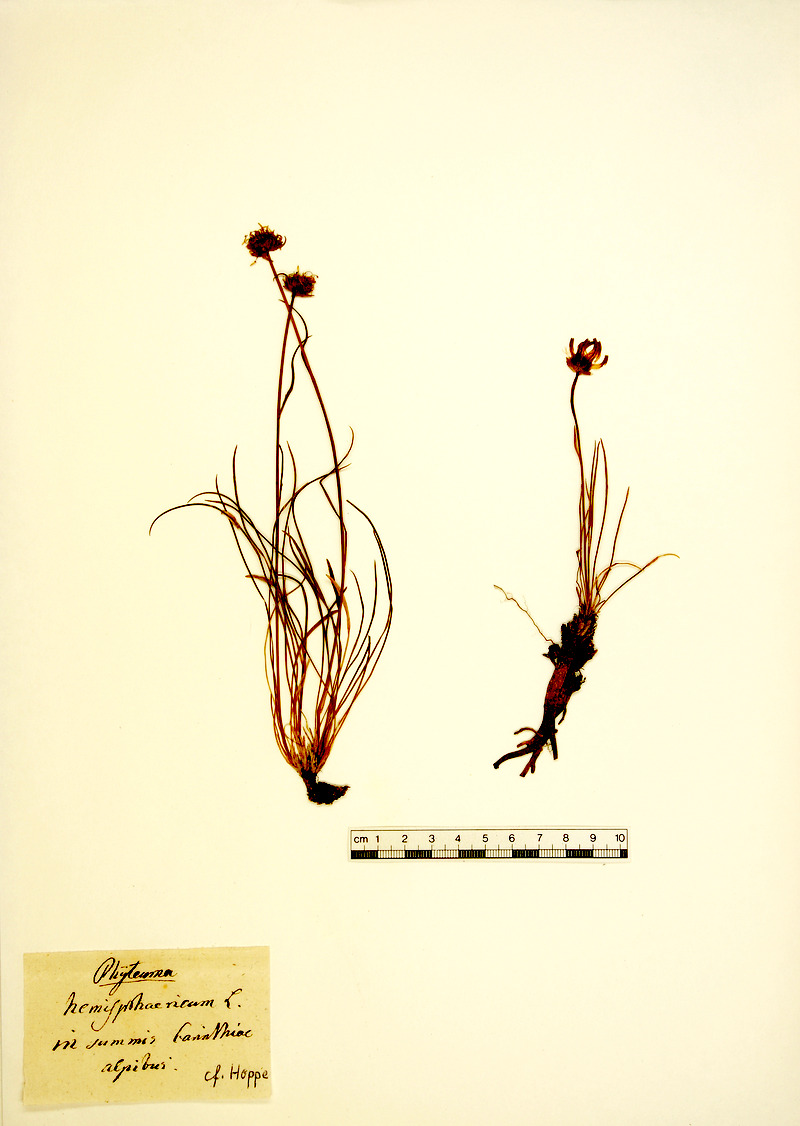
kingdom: Plantae
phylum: Tracheophyta
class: Magnoliopsida
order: Asterales
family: Campanulaceae
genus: Phyteuma
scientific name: Phyteuma hemisphaericum
